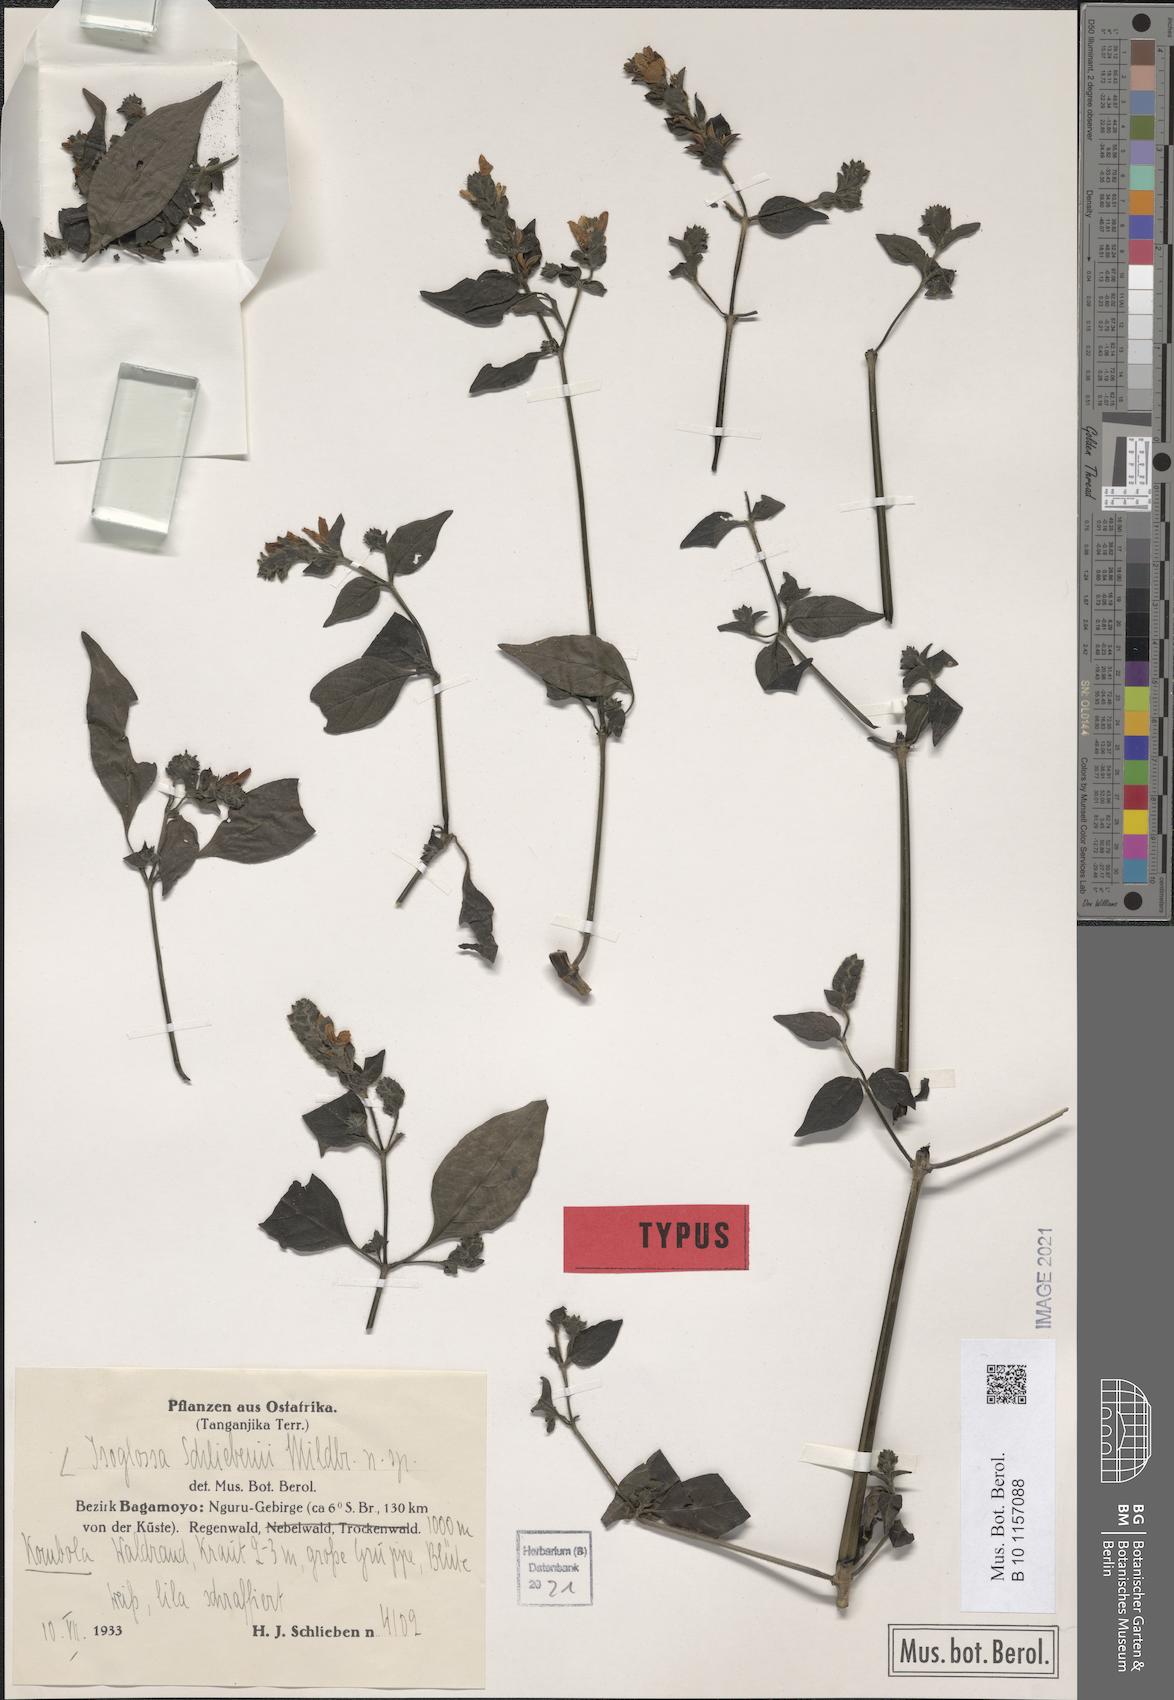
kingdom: Plantae
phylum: Tracheophyta
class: Magnoliopsida
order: Lamiales
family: Acanthaceae
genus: Isoglossa
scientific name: Isoglossa substrobilina
